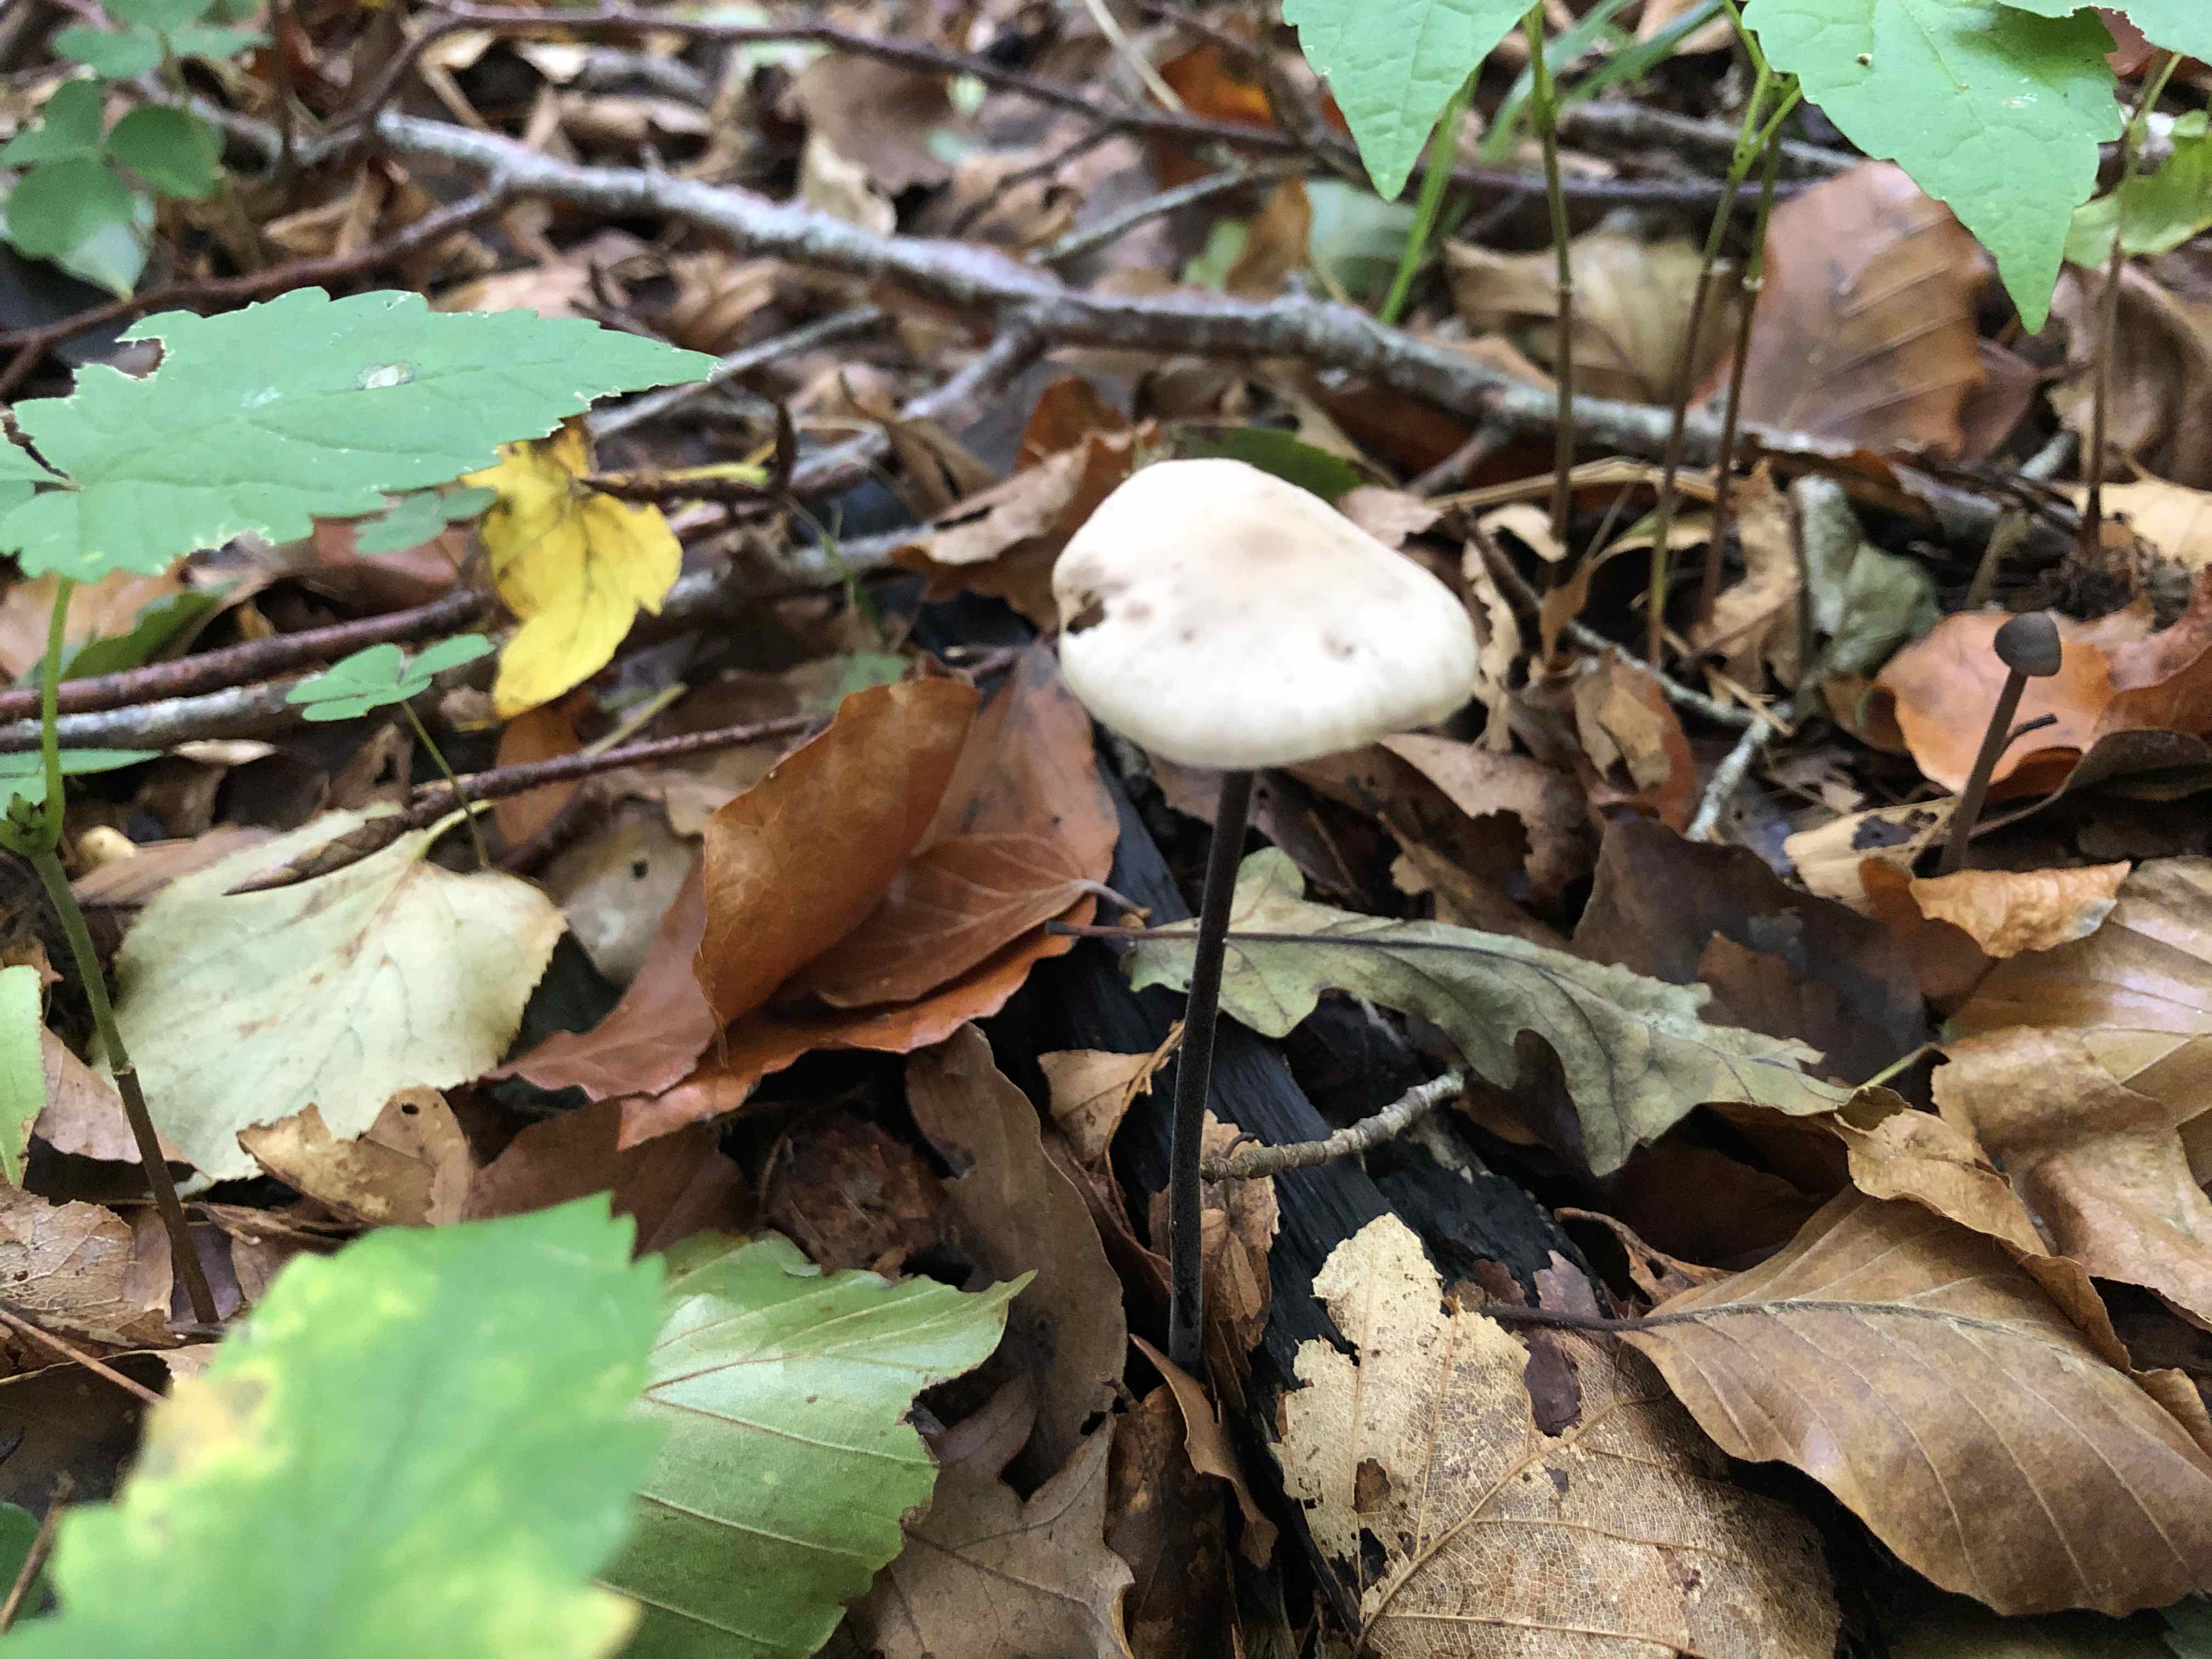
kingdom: Fungi
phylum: Basidiomycota
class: Agaricomycetes
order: Agaricales
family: Omphalotaceae
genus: Mycetinis
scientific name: Mycetinis alliaceus
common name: stor løghat
